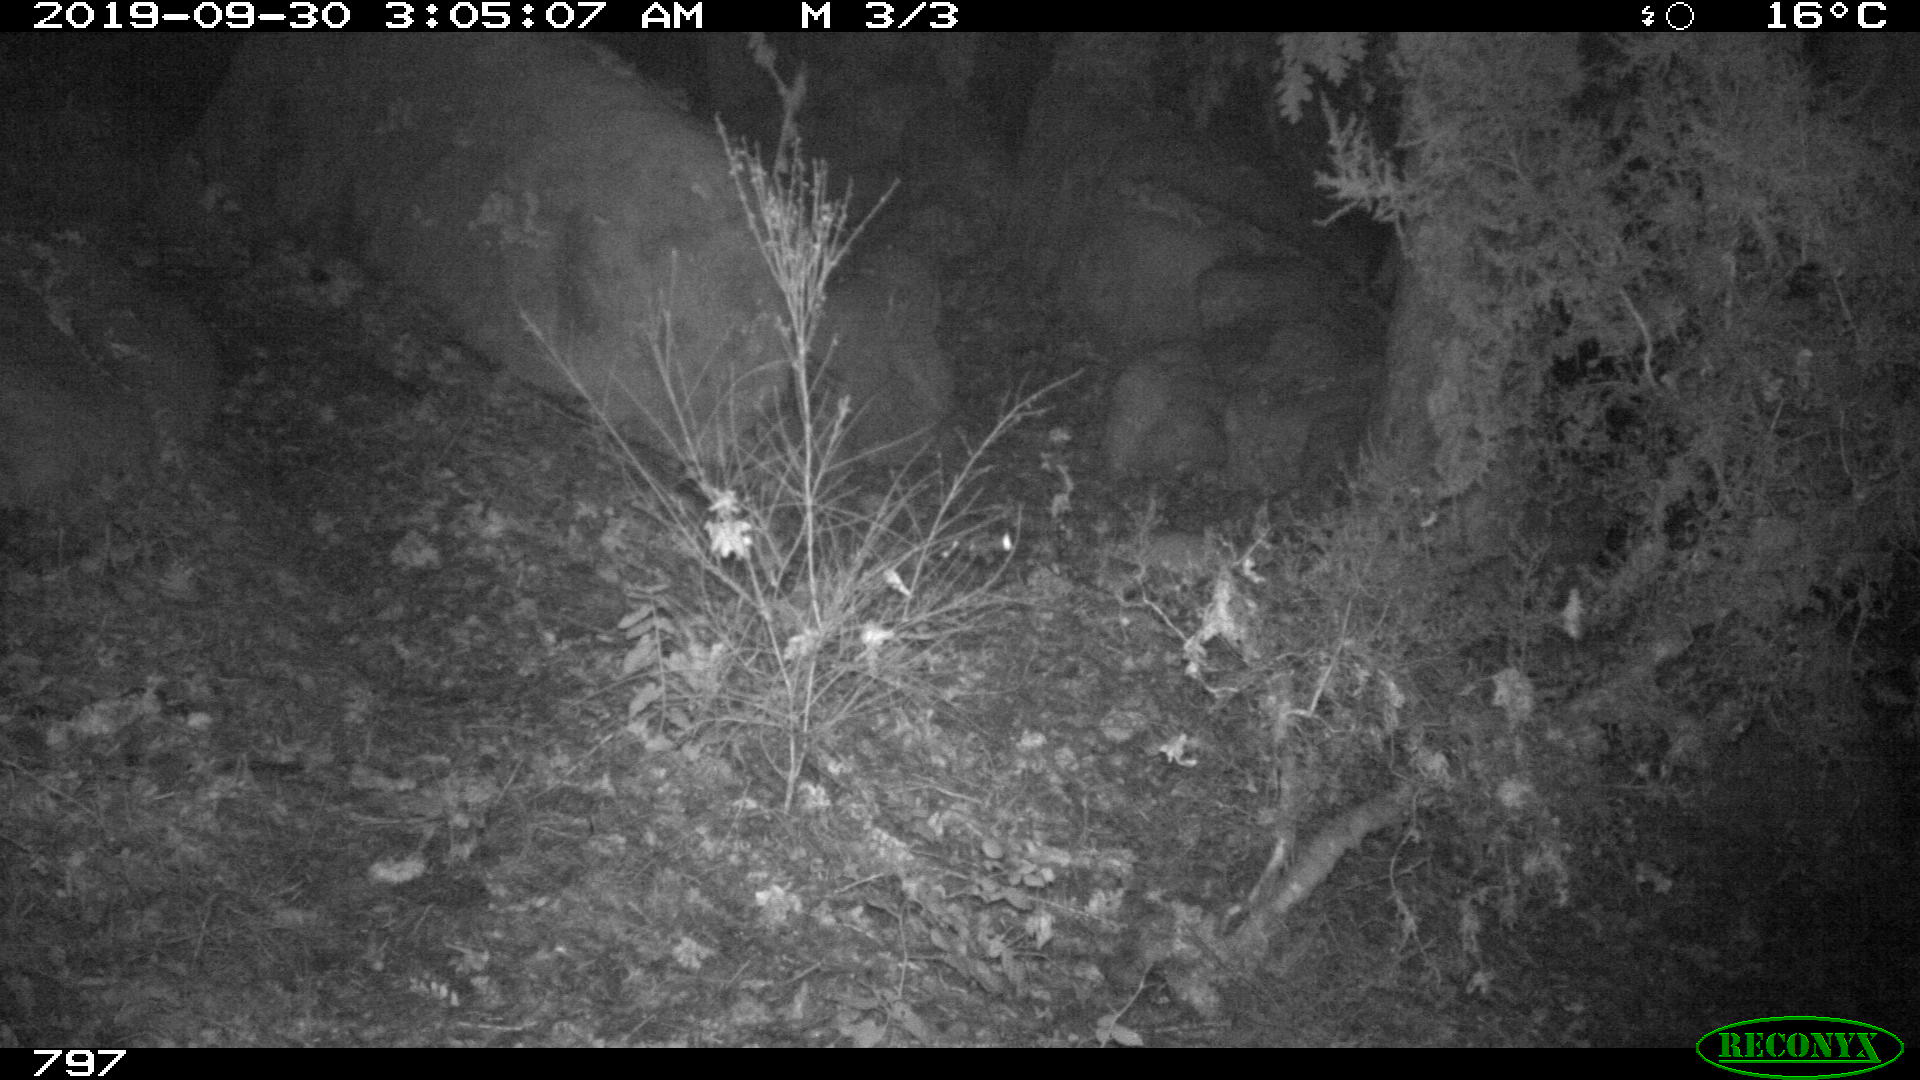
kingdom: Animalia
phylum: Chordata
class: Mammalia
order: Artiodactyla
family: Suidae
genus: Sus
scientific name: Sus scrofa
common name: Wild boar
